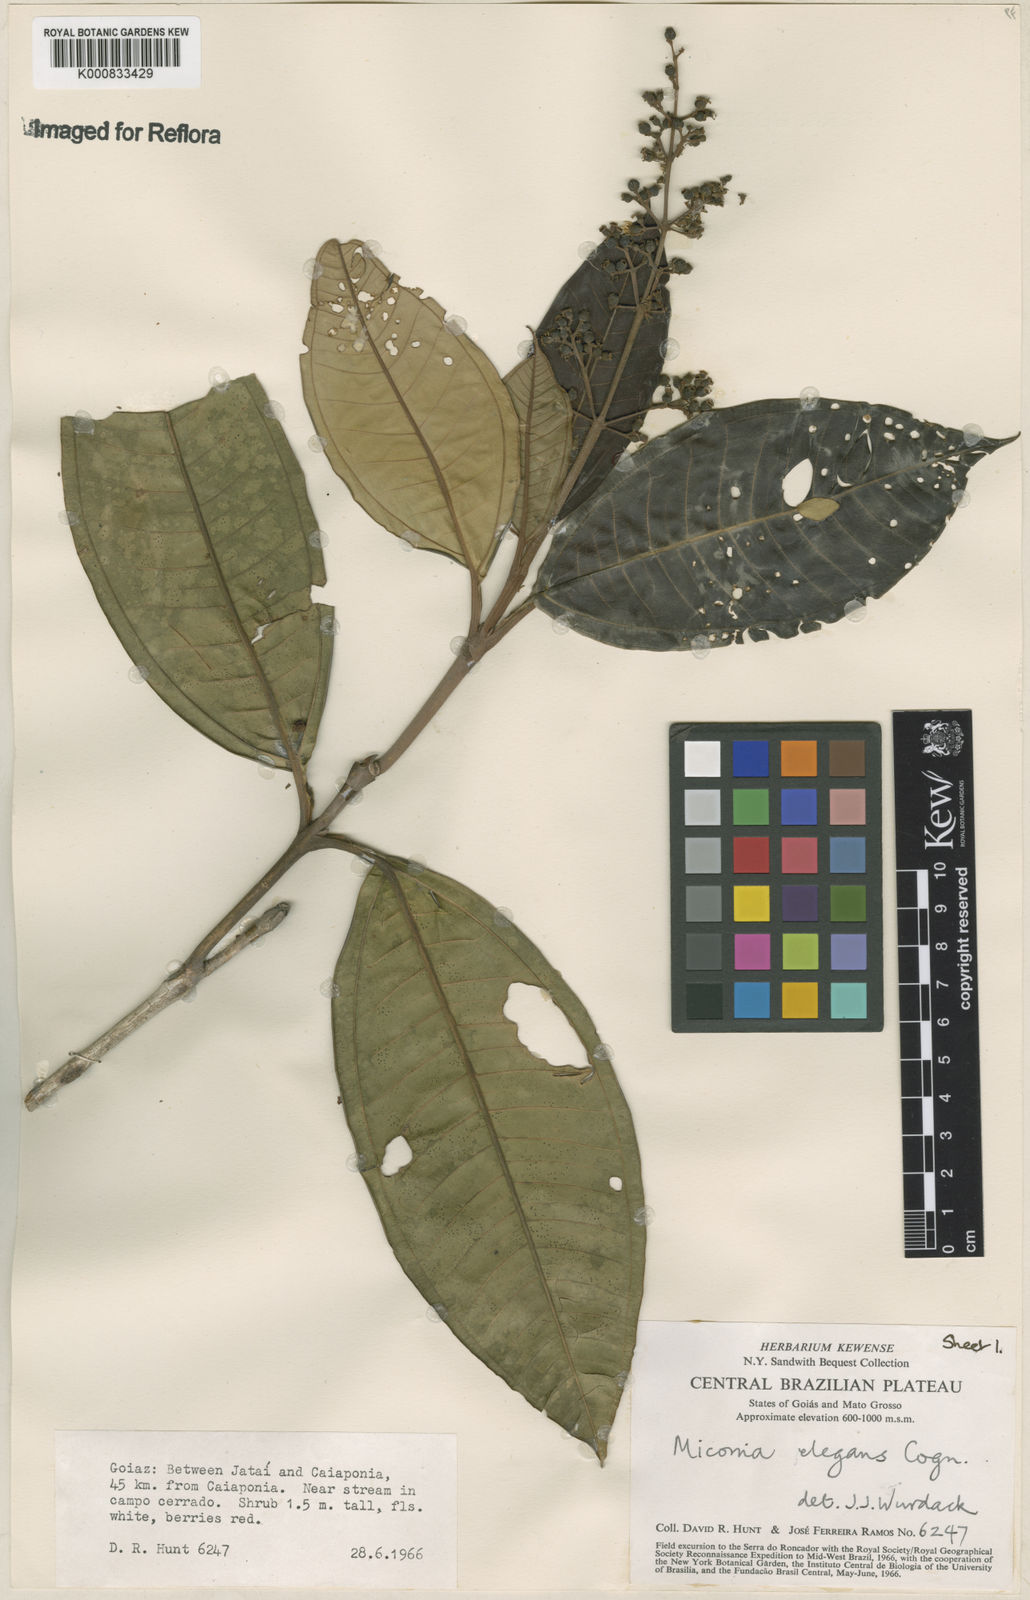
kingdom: Plantae
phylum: Tracheophyta
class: Magnoliopsida
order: Myrtales
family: Melastomataceae
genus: Miconia
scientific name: Miconia elegans
